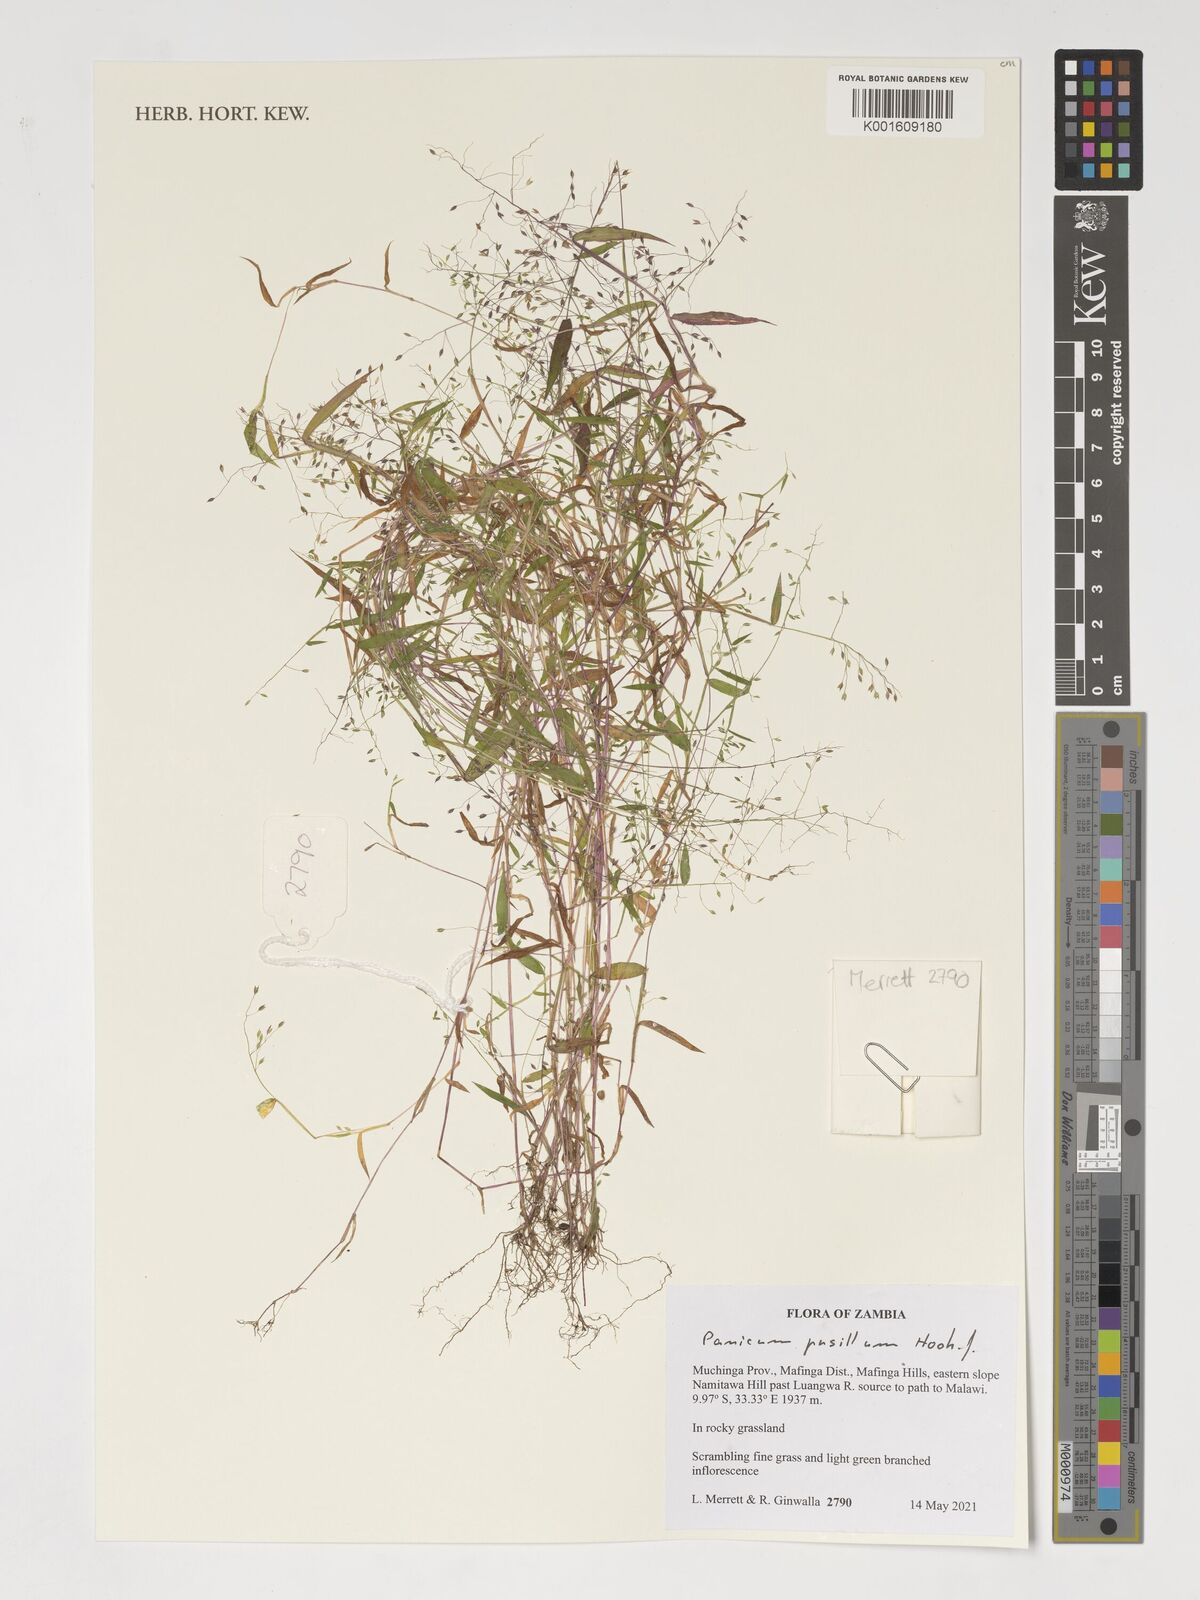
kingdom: Plantae
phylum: Tracheophyta
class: Liliopsida
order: Poales
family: Poaceae
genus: Panicum
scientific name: Panicum pusillum
